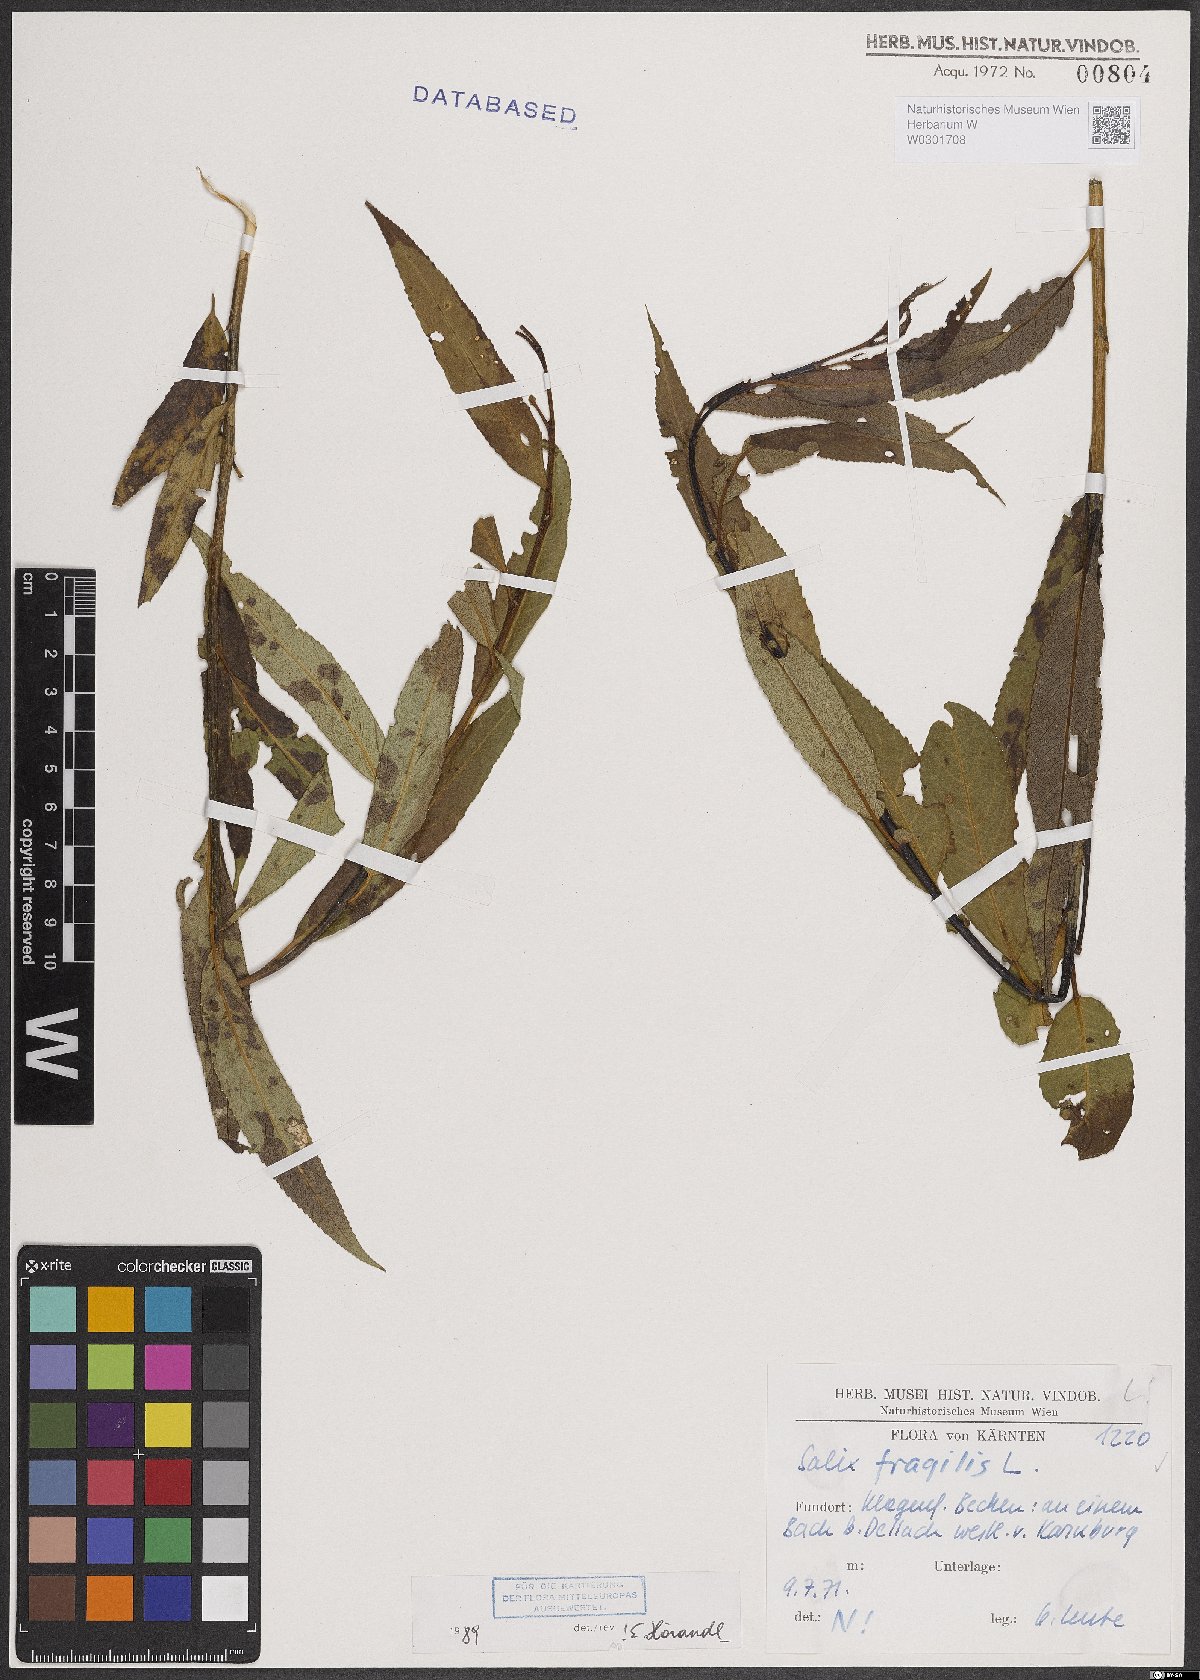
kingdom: Plantae
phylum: Tracheophyta
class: Magnoliopsida
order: Malpighiales
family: Salicaceae
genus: Salix
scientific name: Salix fragilis
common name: Crack willow
